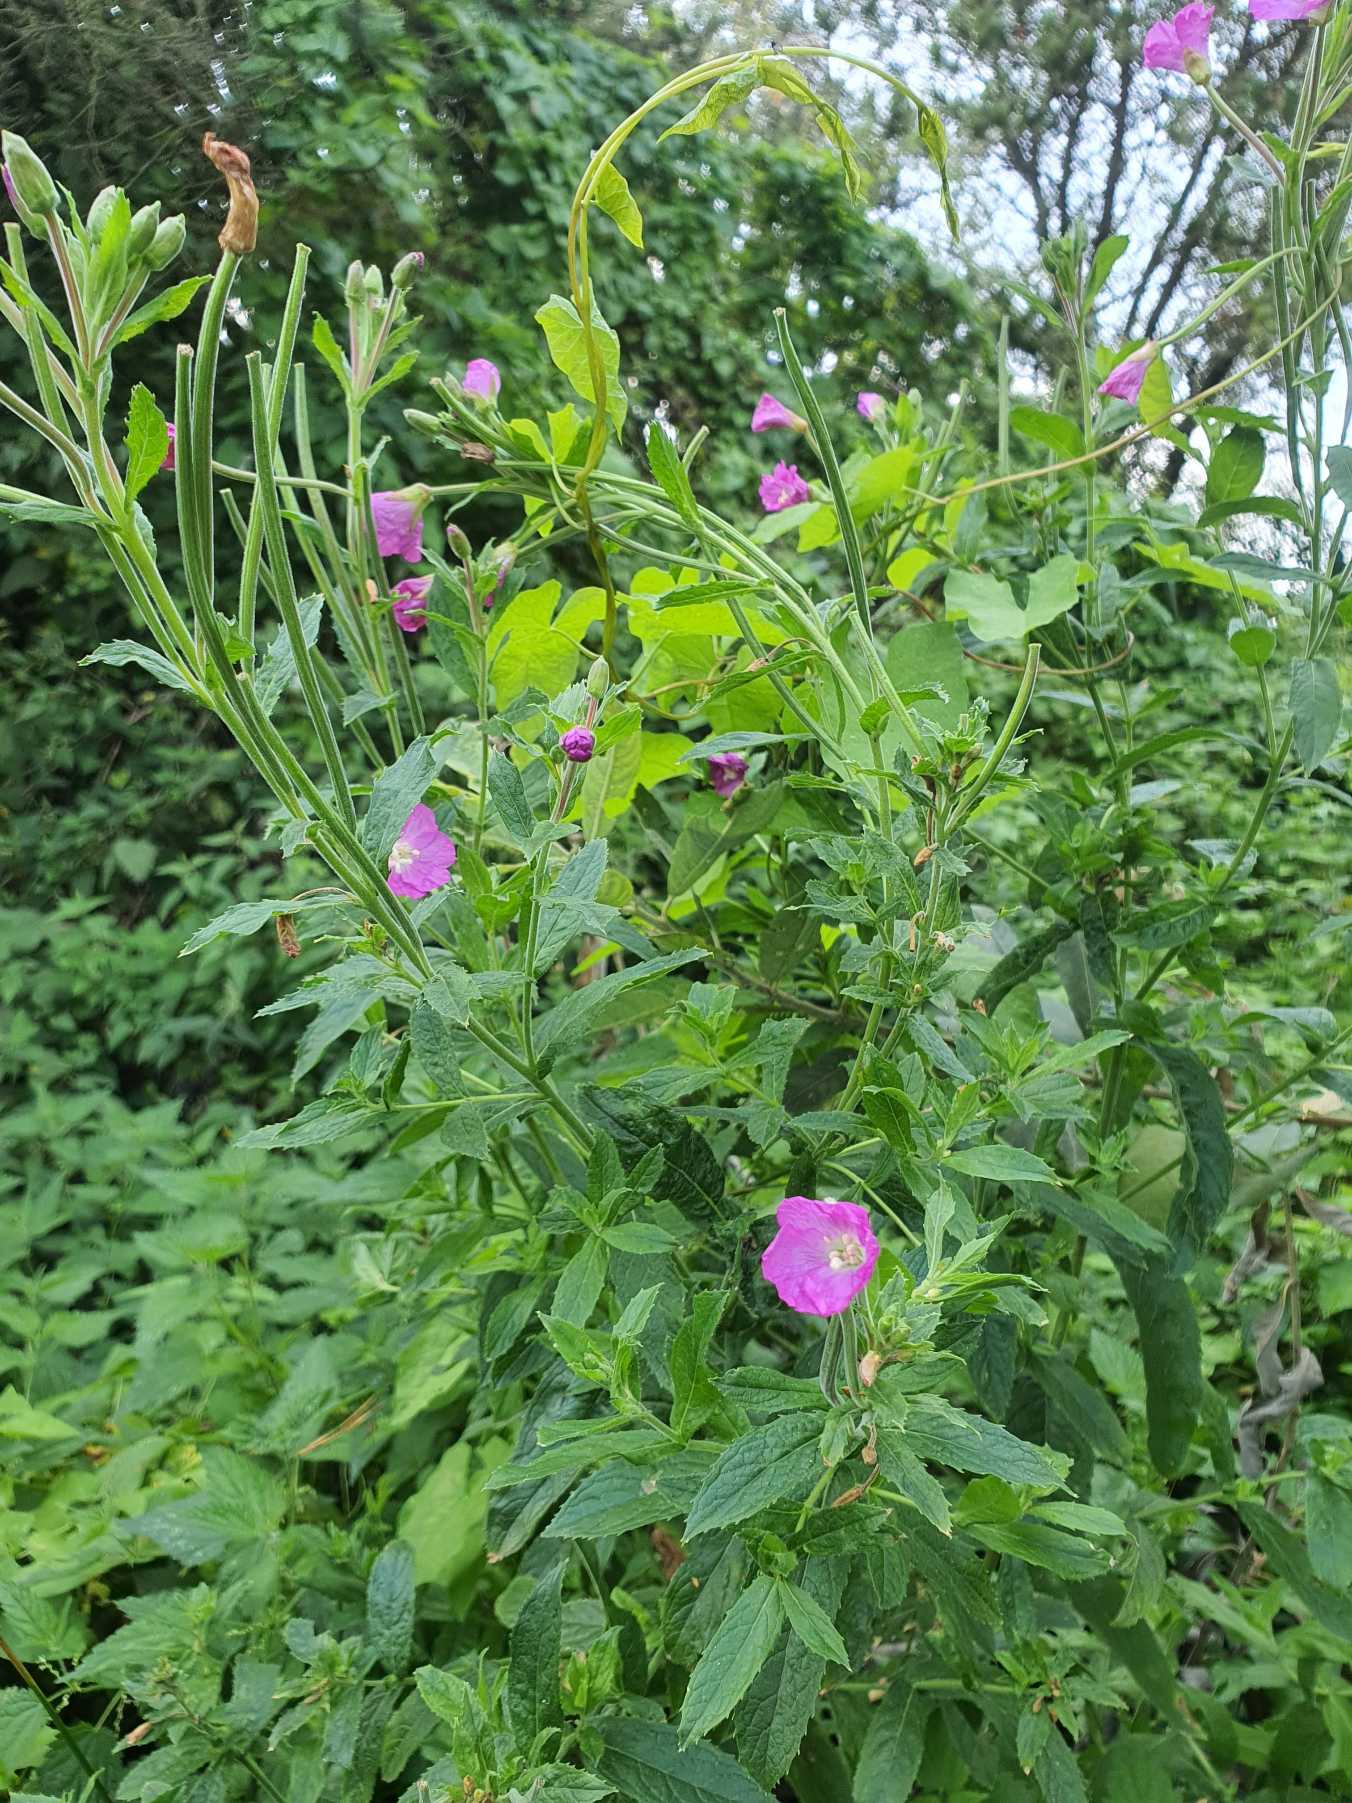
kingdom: Plantae
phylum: Tracheophyta
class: Magnoliopsida
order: Myrtales
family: Onagraceae
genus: Epilobium
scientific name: Epilobium hirsutum
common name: Lådden dueurt
